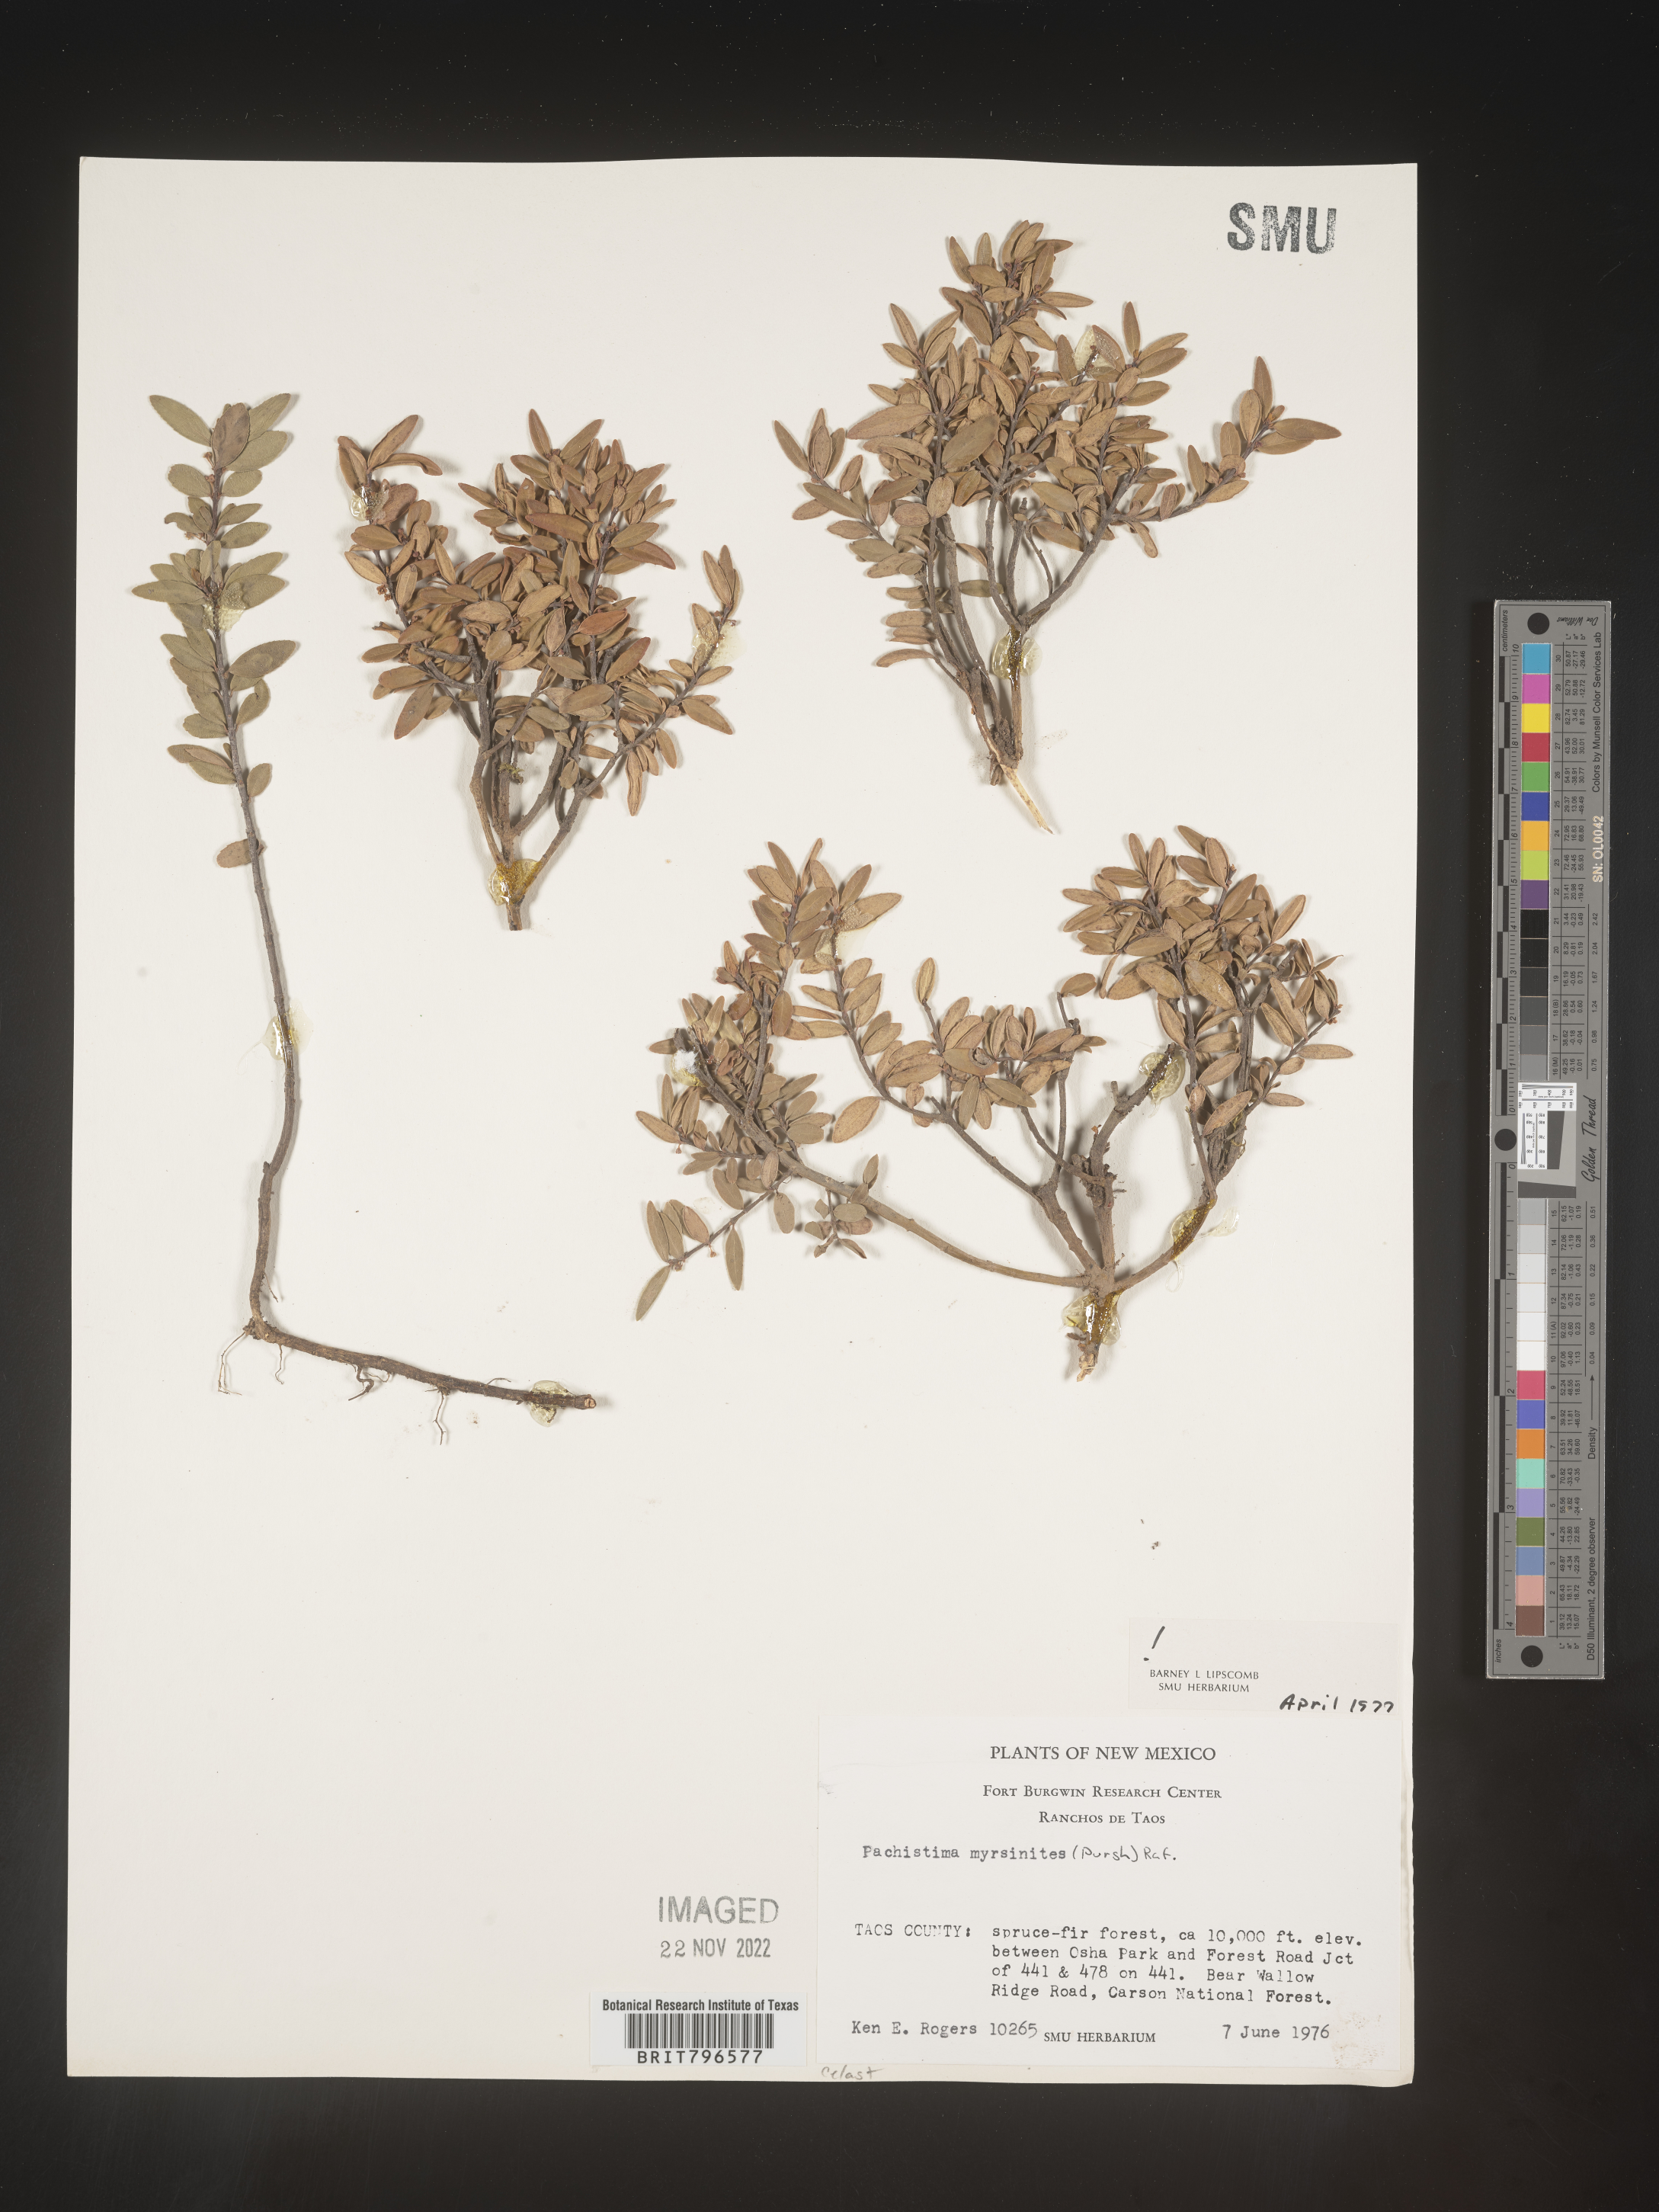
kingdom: Plantae
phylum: Tracheophyta
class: Magnoliopsida
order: Celastrales
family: Celastraceae
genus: Paxistima
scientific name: Paxistima myrsinites
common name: Mountain-lover
